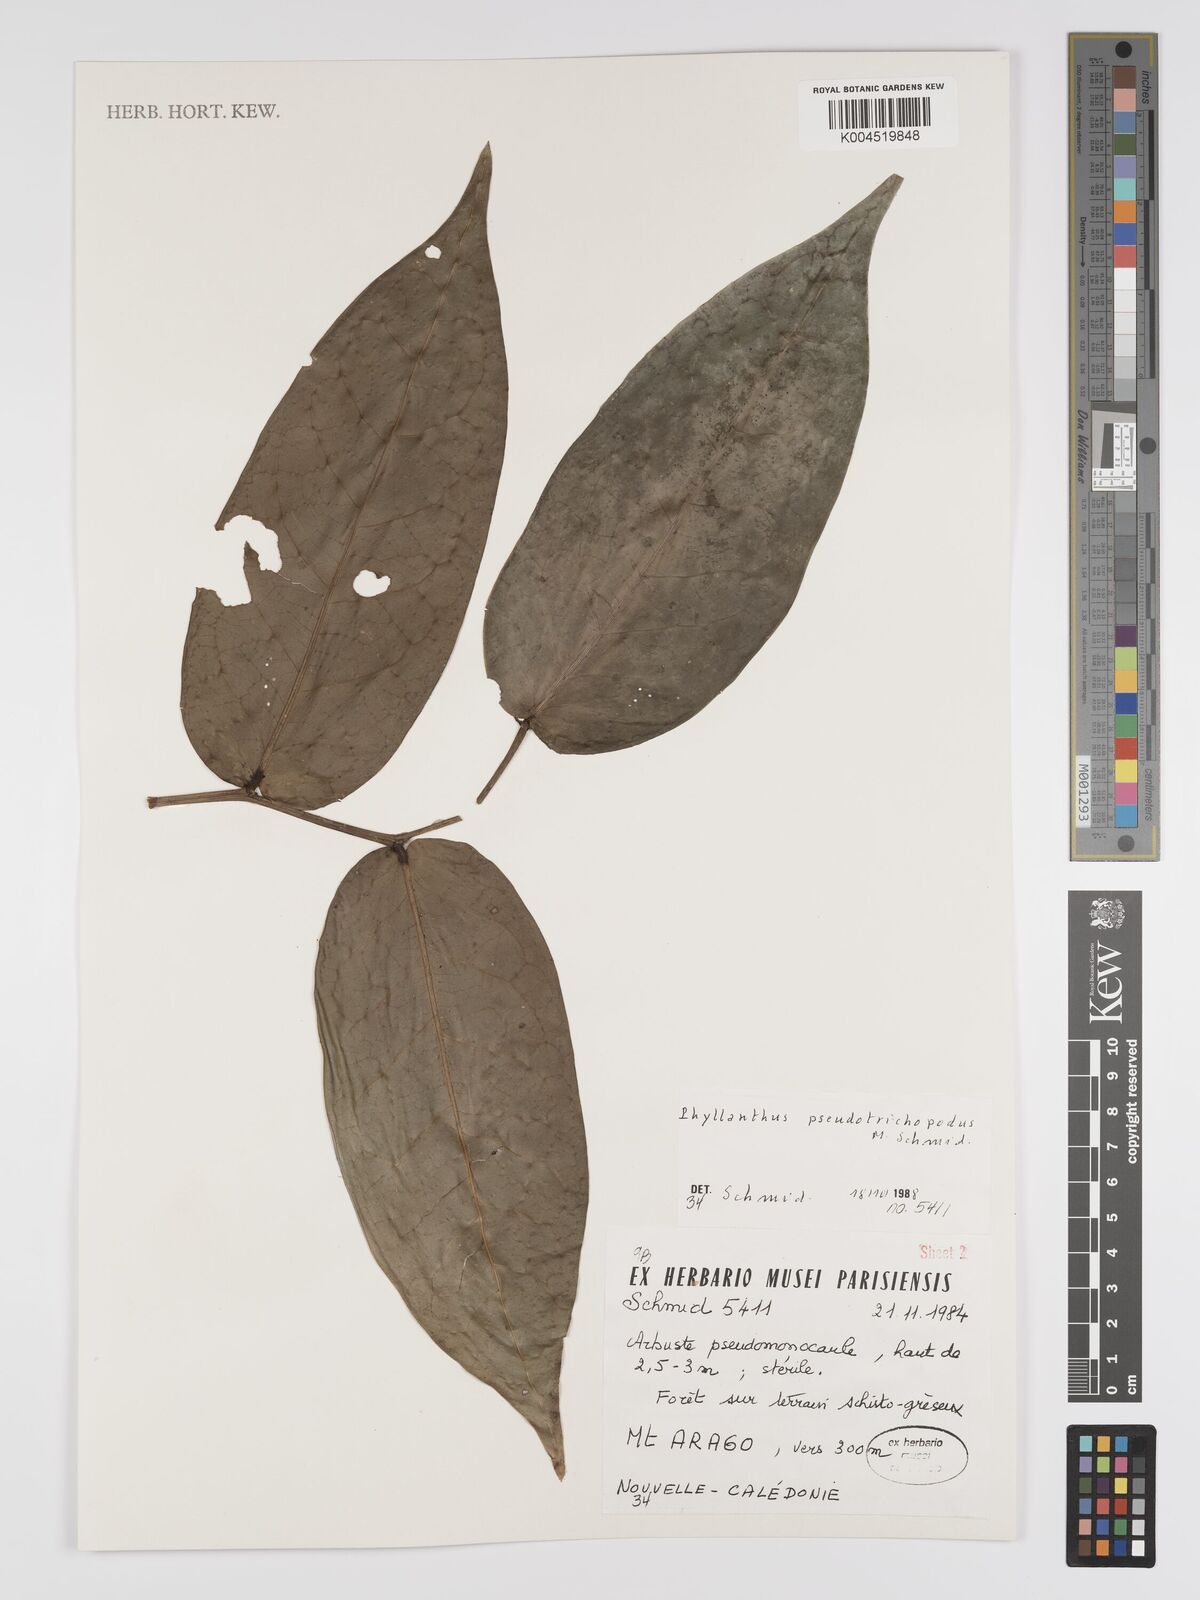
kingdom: Plantae
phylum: Tracheophyta
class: Magnoliopsida
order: Malpighiales
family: Phyllanthaceae
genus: Phyllanthus
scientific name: Phyllanthus pseudotrichopodus
